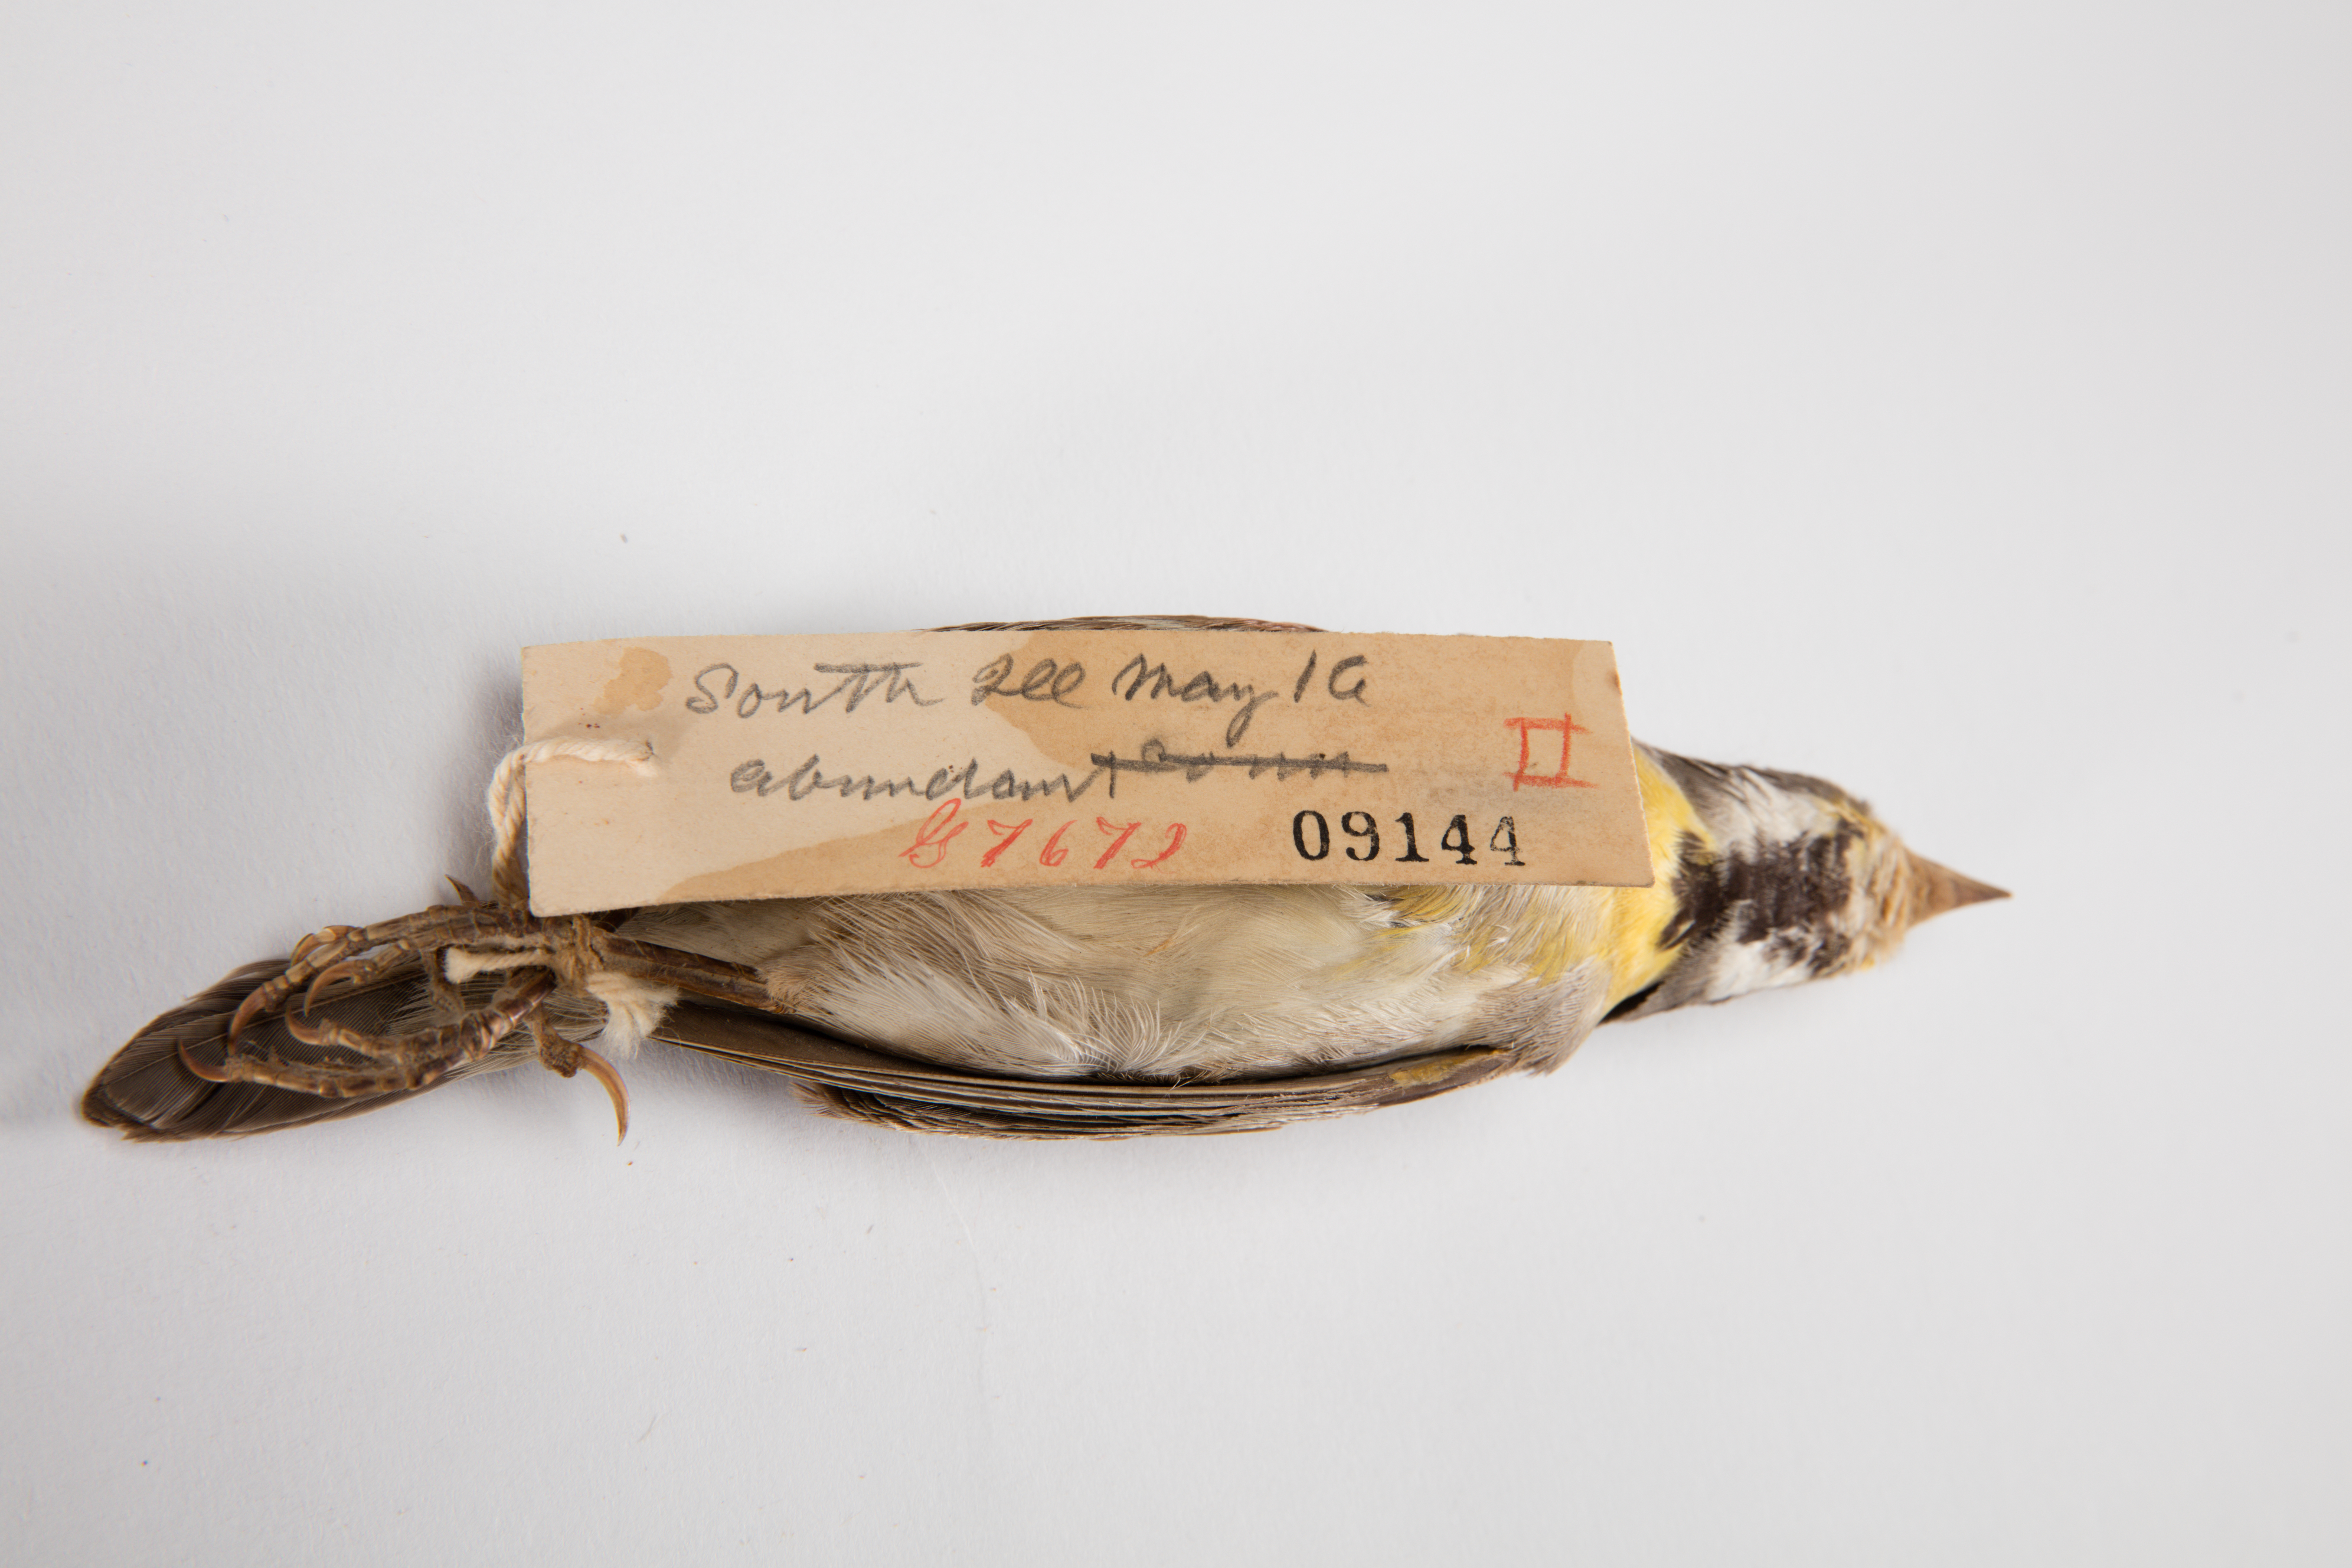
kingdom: Animalia
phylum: Chordata
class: Aves
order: Passeriformes
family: Cardinalidae
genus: Spiza
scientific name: Spiza americana
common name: Dickcissel
